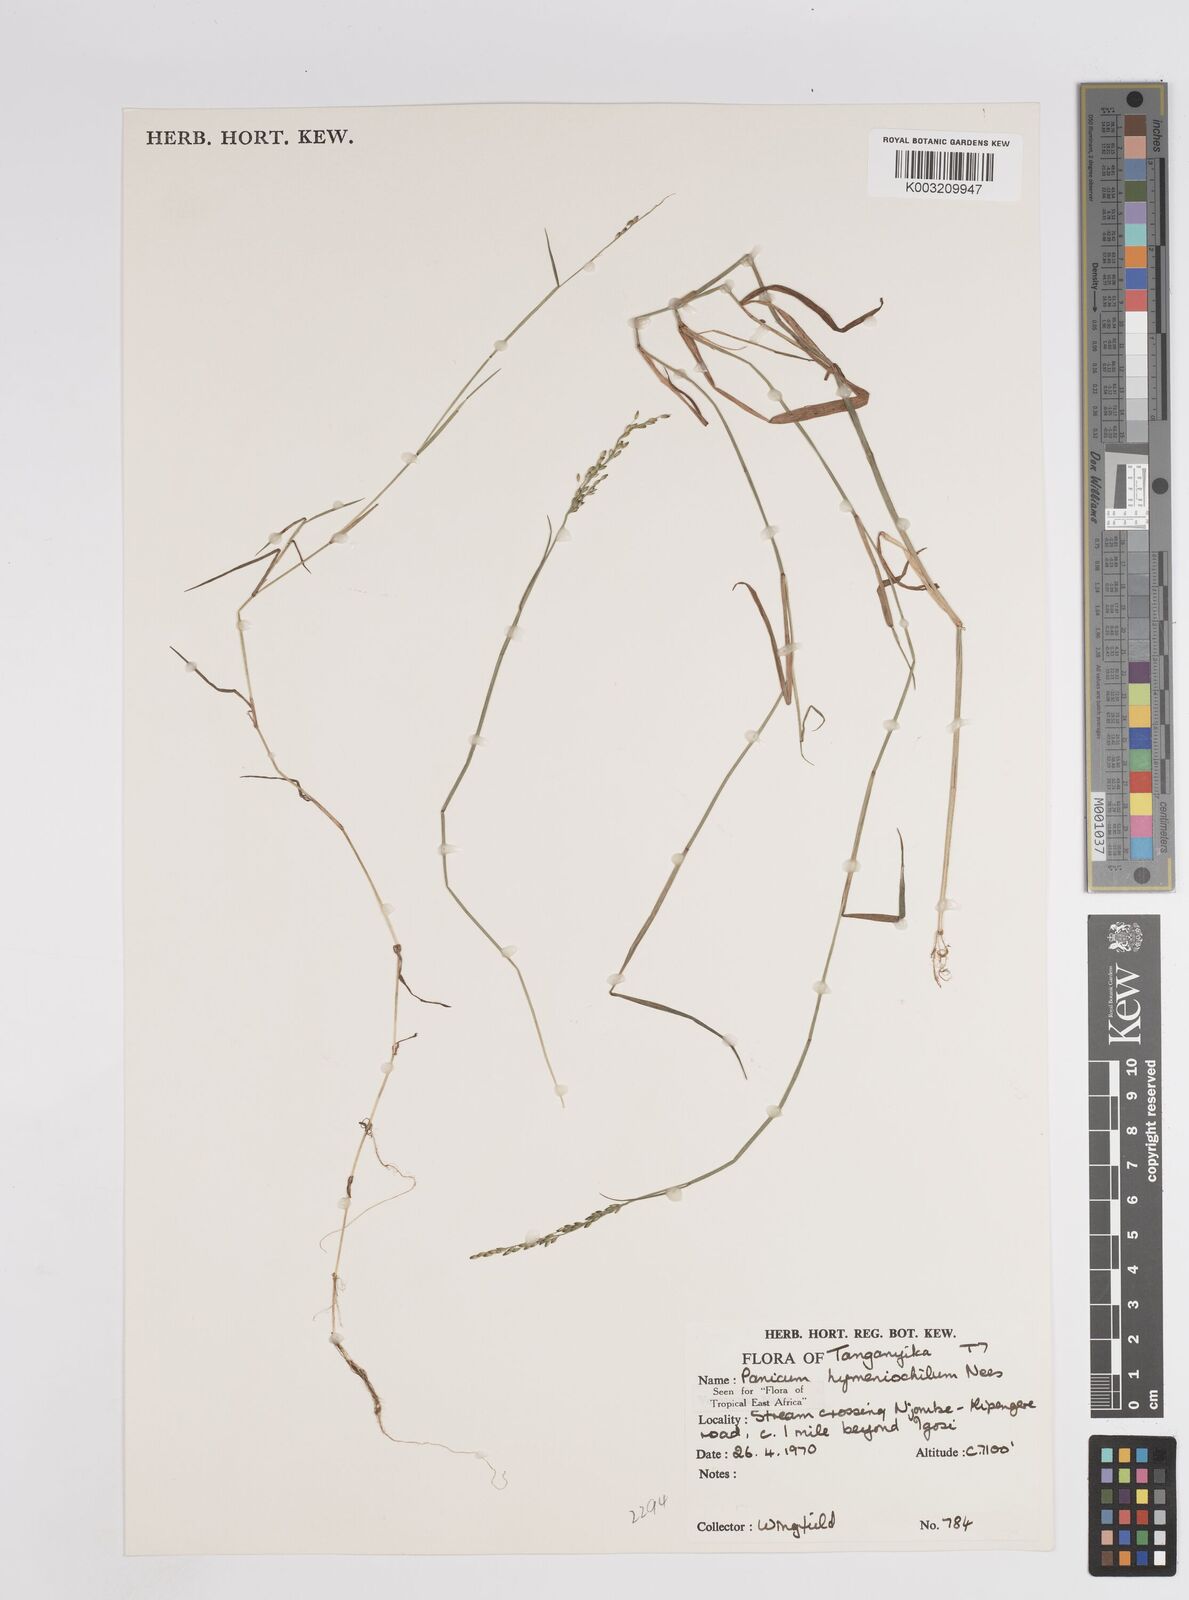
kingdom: Plantae
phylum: Tracheophyta
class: Liliopsida
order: Poales
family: Poaceae
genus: Adenochloa
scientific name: Adenochloa hymeniochila
